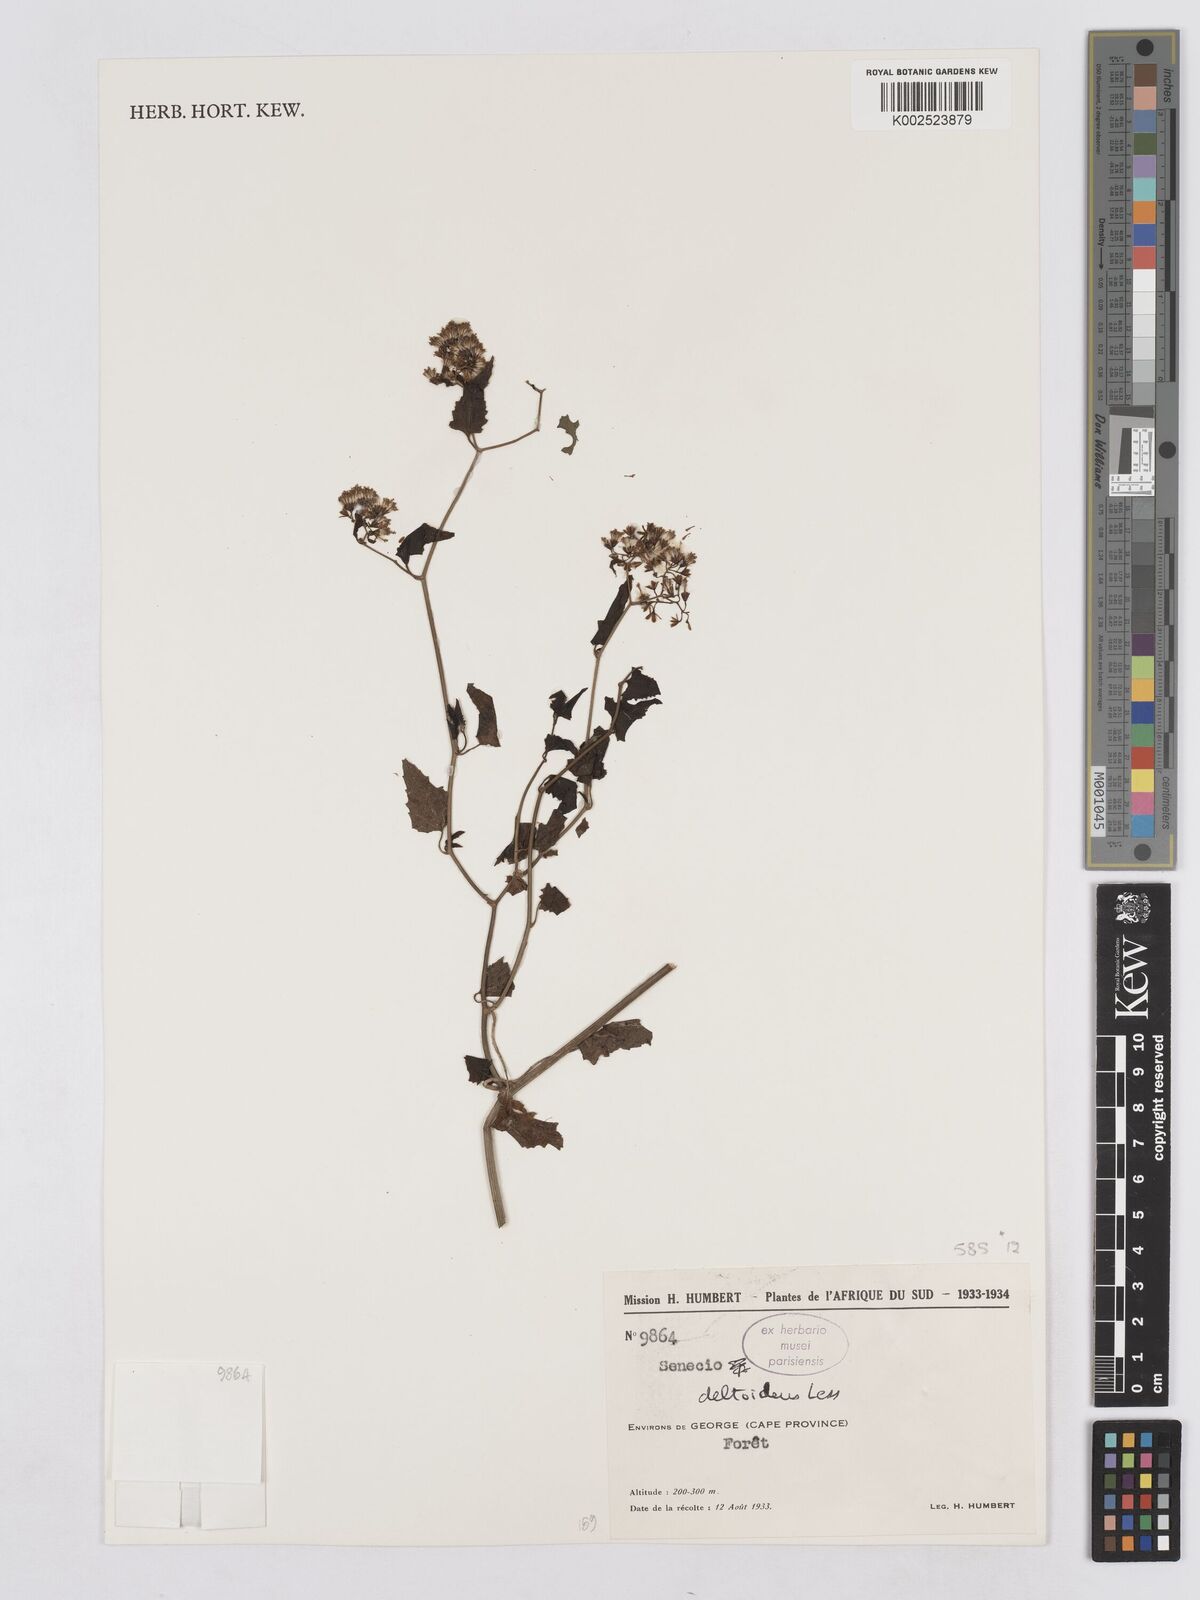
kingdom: Plantae
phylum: Tracheophyta
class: Magnoliopsida
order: Asterales
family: Asteraceae
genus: Senecio
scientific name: Senecio deltoideus
